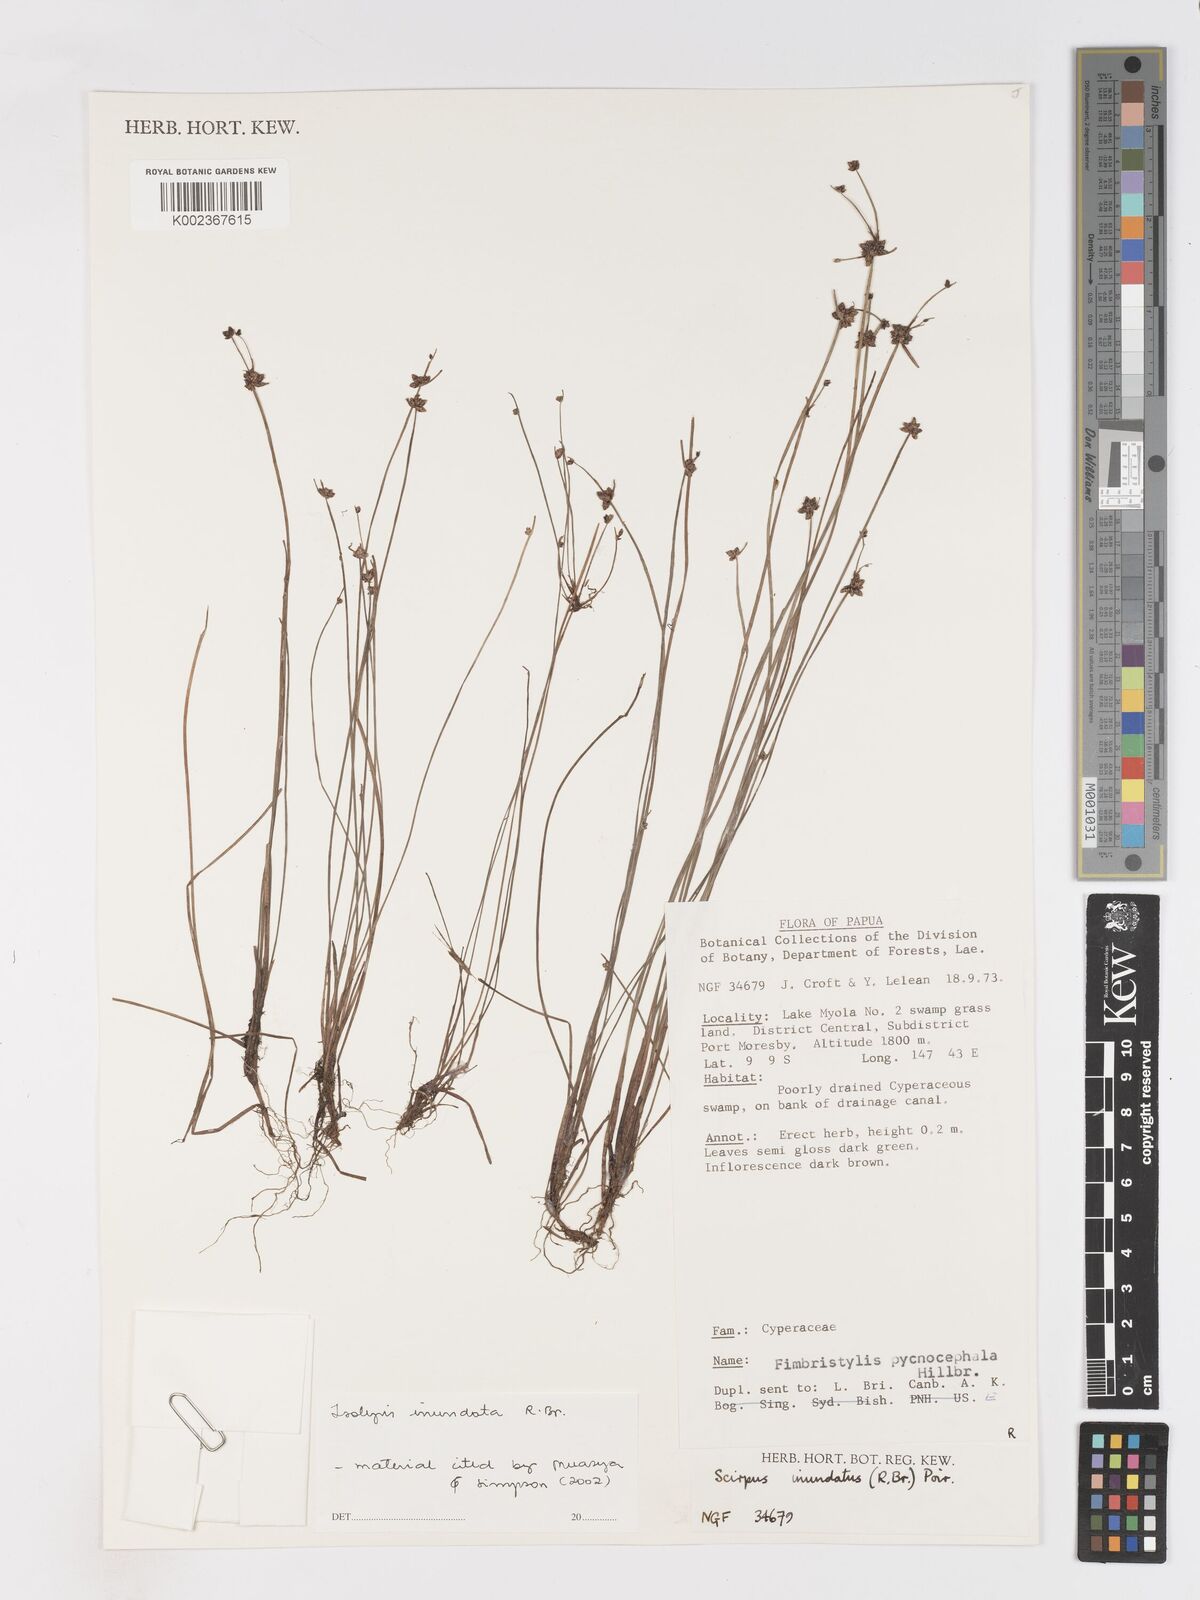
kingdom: Plantae
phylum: Tracheophyta
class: Liliopsida
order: Poales
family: Cyperaceae
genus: Isolepis
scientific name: Isolepis inundata
